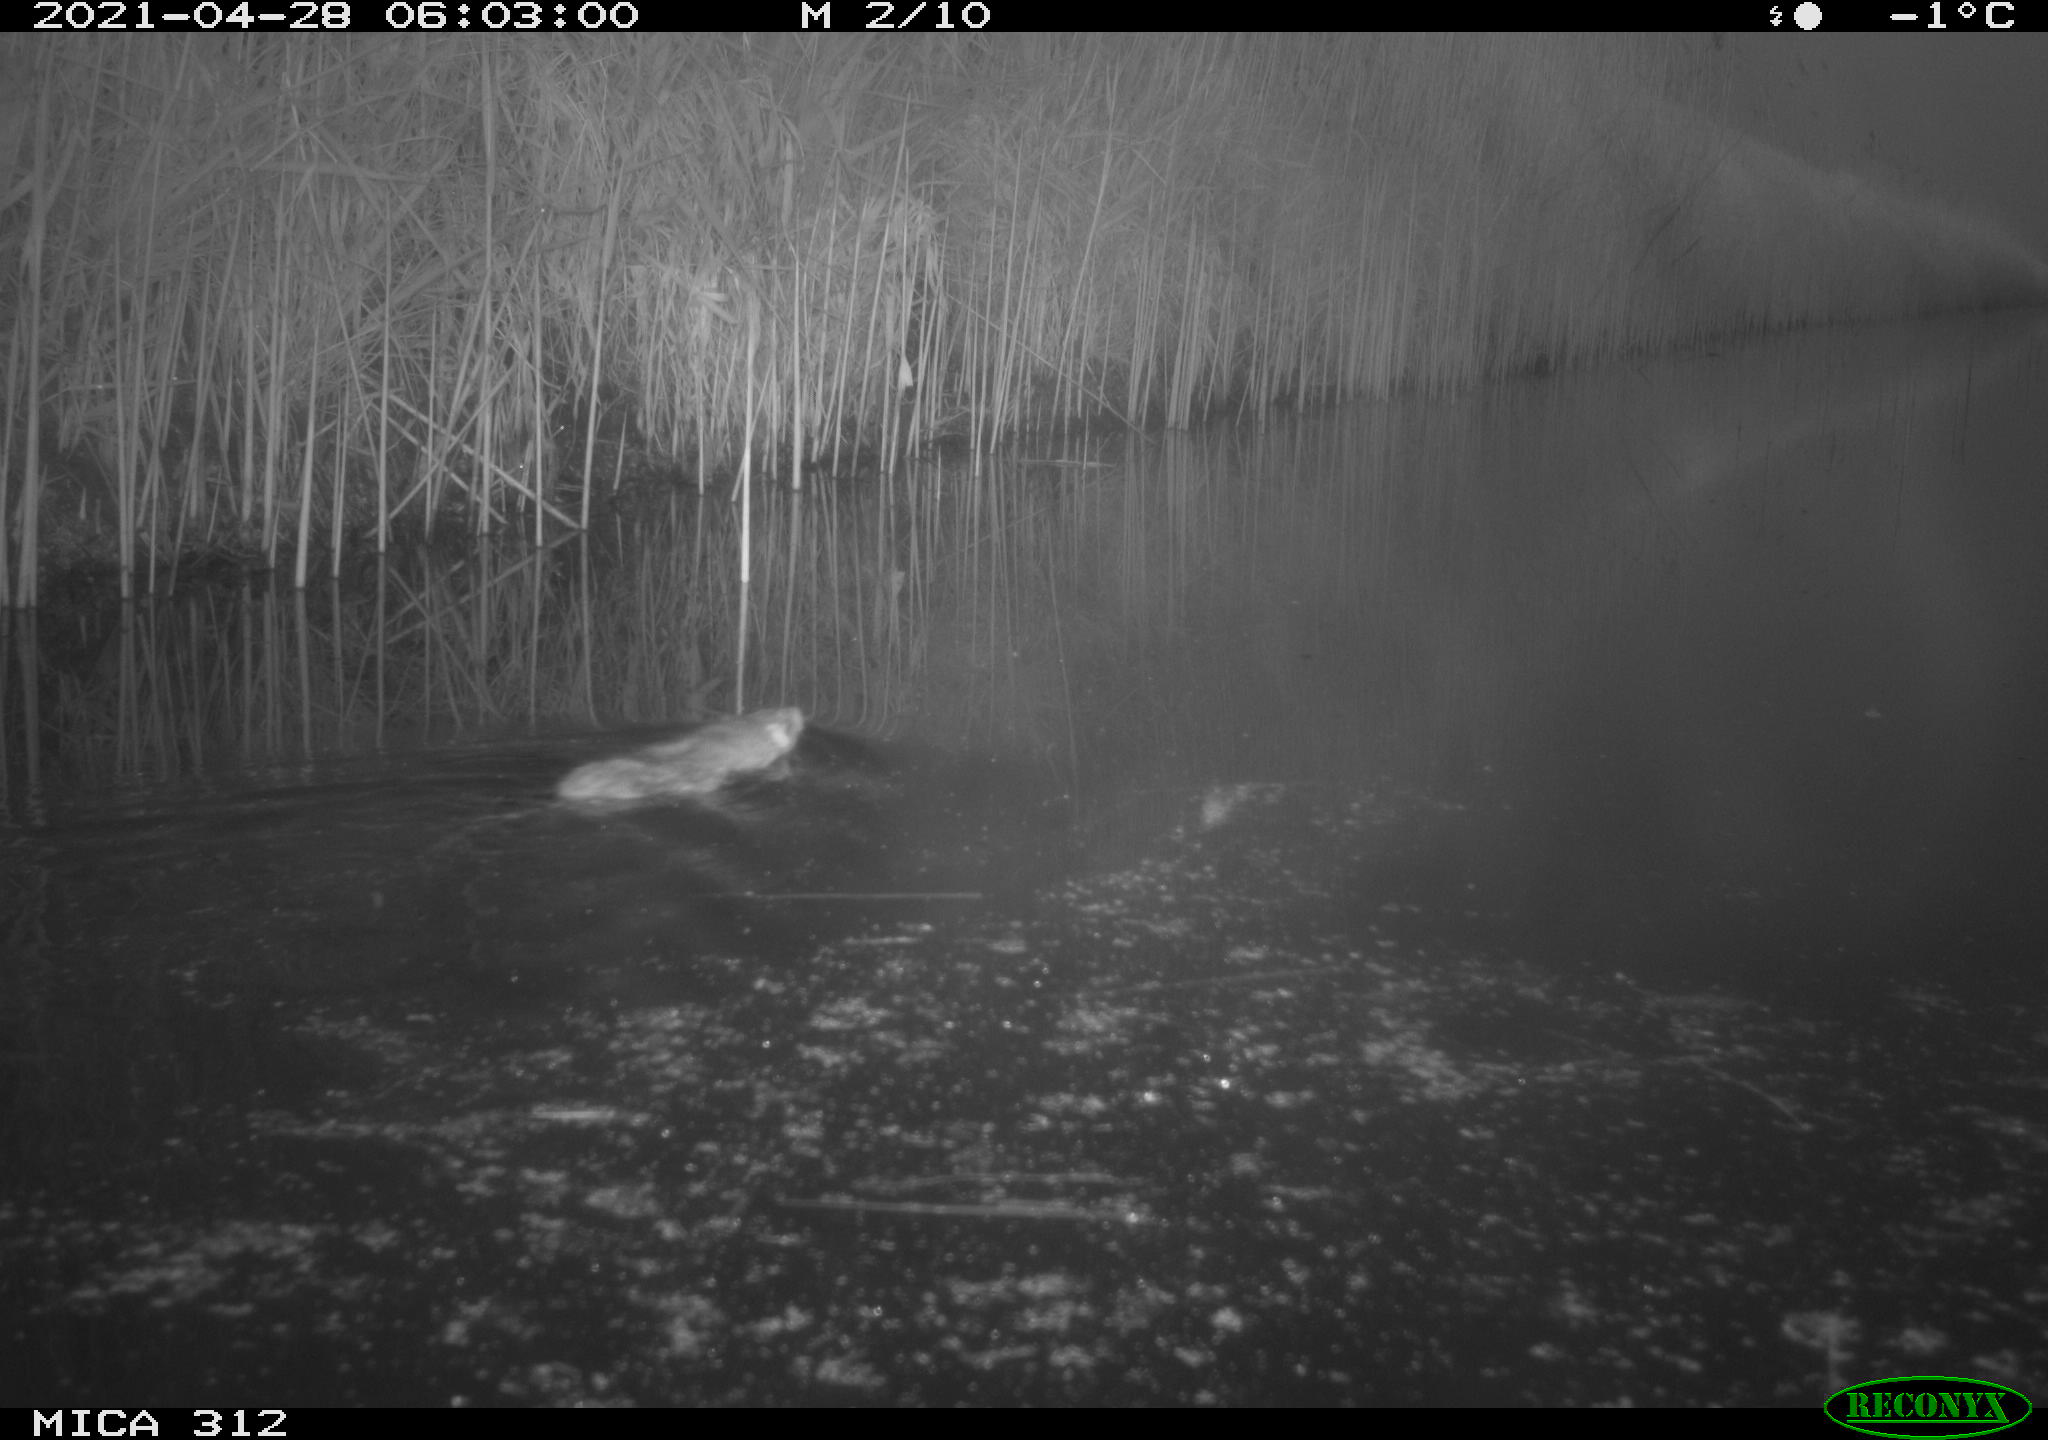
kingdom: Animalia
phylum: Chordata
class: Mammalia
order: Rodentia
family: Muridae
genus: Rattus
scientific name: Rattus norvegicus
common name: Brown rat
